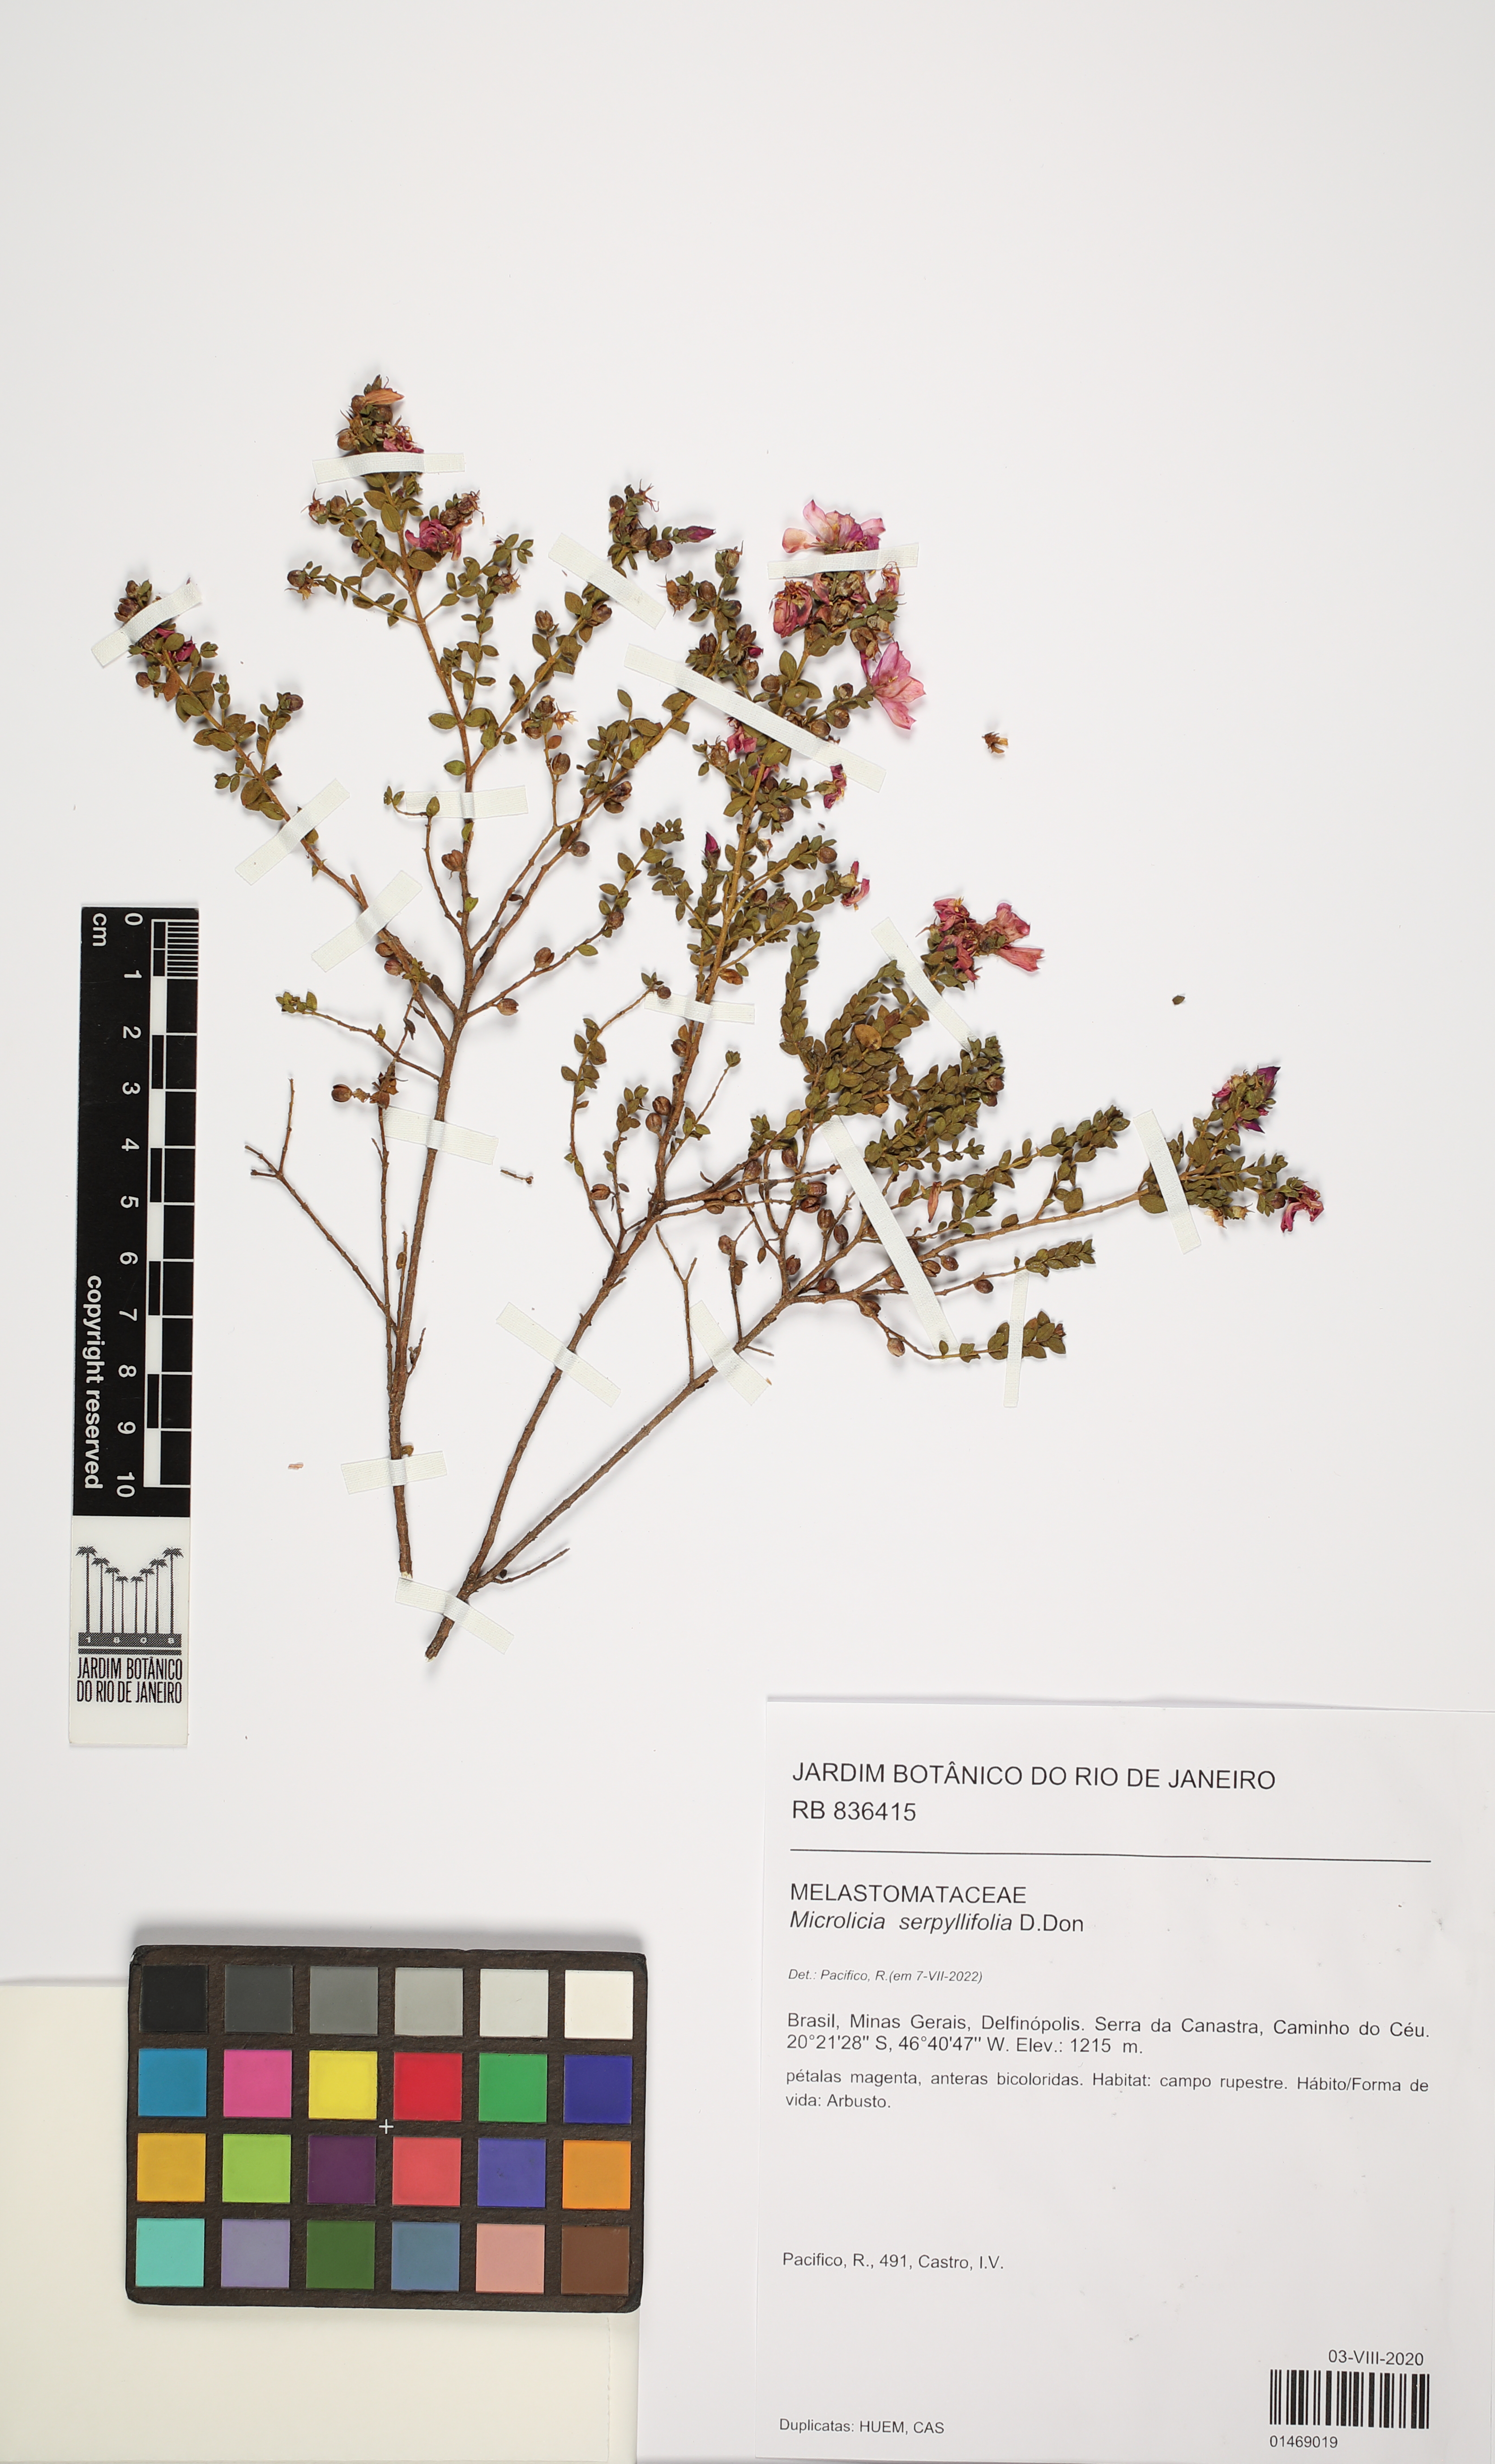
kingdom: Plantae
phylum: Tracheophyta
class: Magnoliopsida
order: Myrtales
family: Melastomataceae
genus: Microlicia
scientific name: Microlicia fulva
